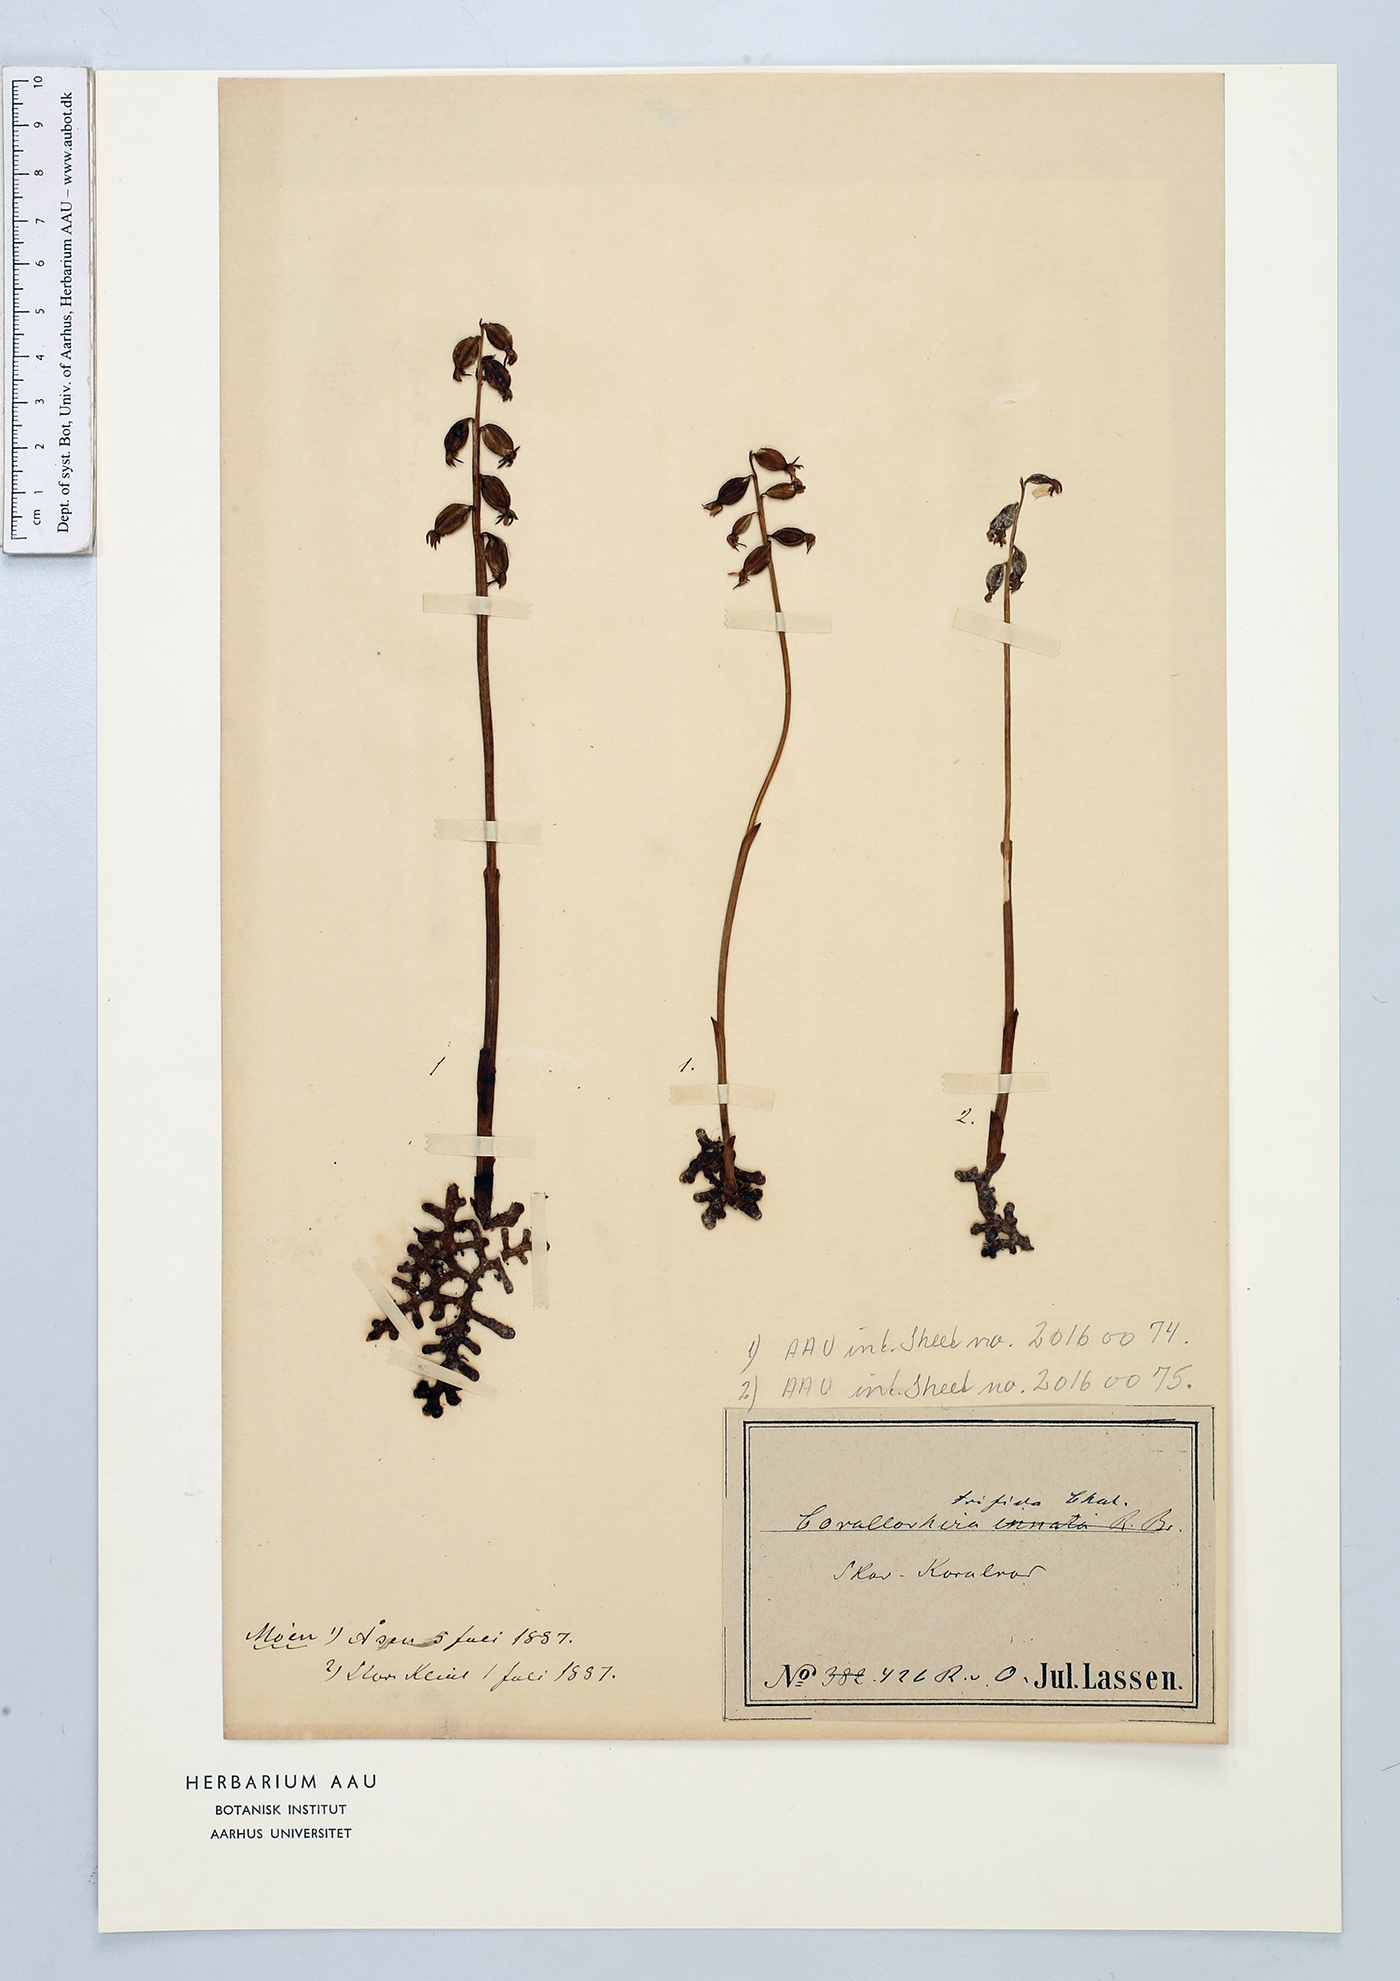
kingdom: Plantae
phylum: Tracheophyta
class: Liliopsida
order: Asparagales
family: Orchidaceae
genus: Corallorhiza
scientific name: Corallorhiza trifida
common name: Yellow coralroot
